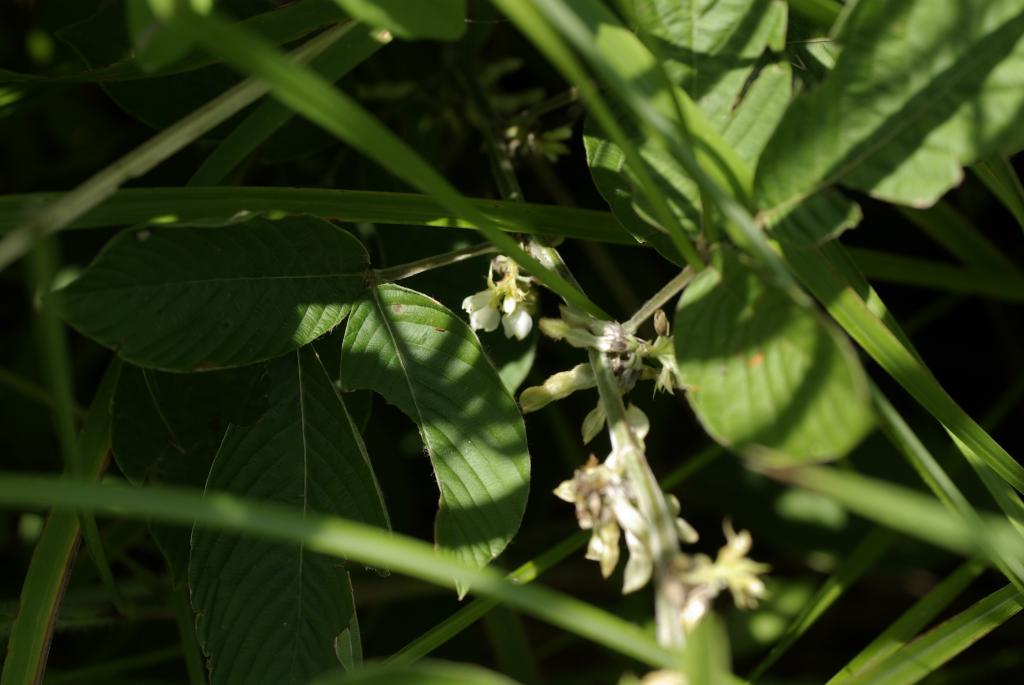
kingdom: Plantae
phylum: Tracheophyta
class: Magnoliopsida
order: Fabales
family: Fabaceae
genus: Dendrolobium
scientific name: Dendrolobium trianglare
